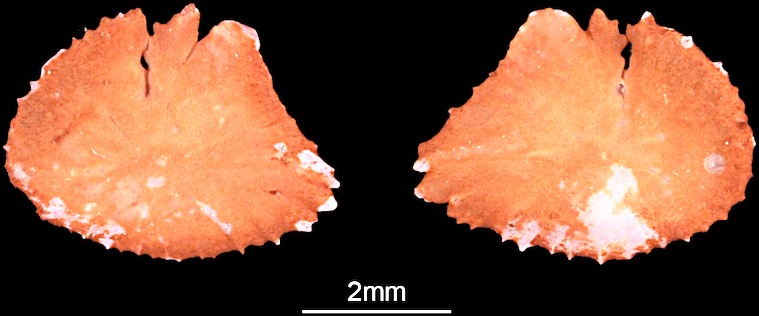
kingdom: Animalia
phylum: Chordata
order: Characiformes
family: Alestidae
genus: Alestes
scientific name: Alestes baremoze
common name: Characin
